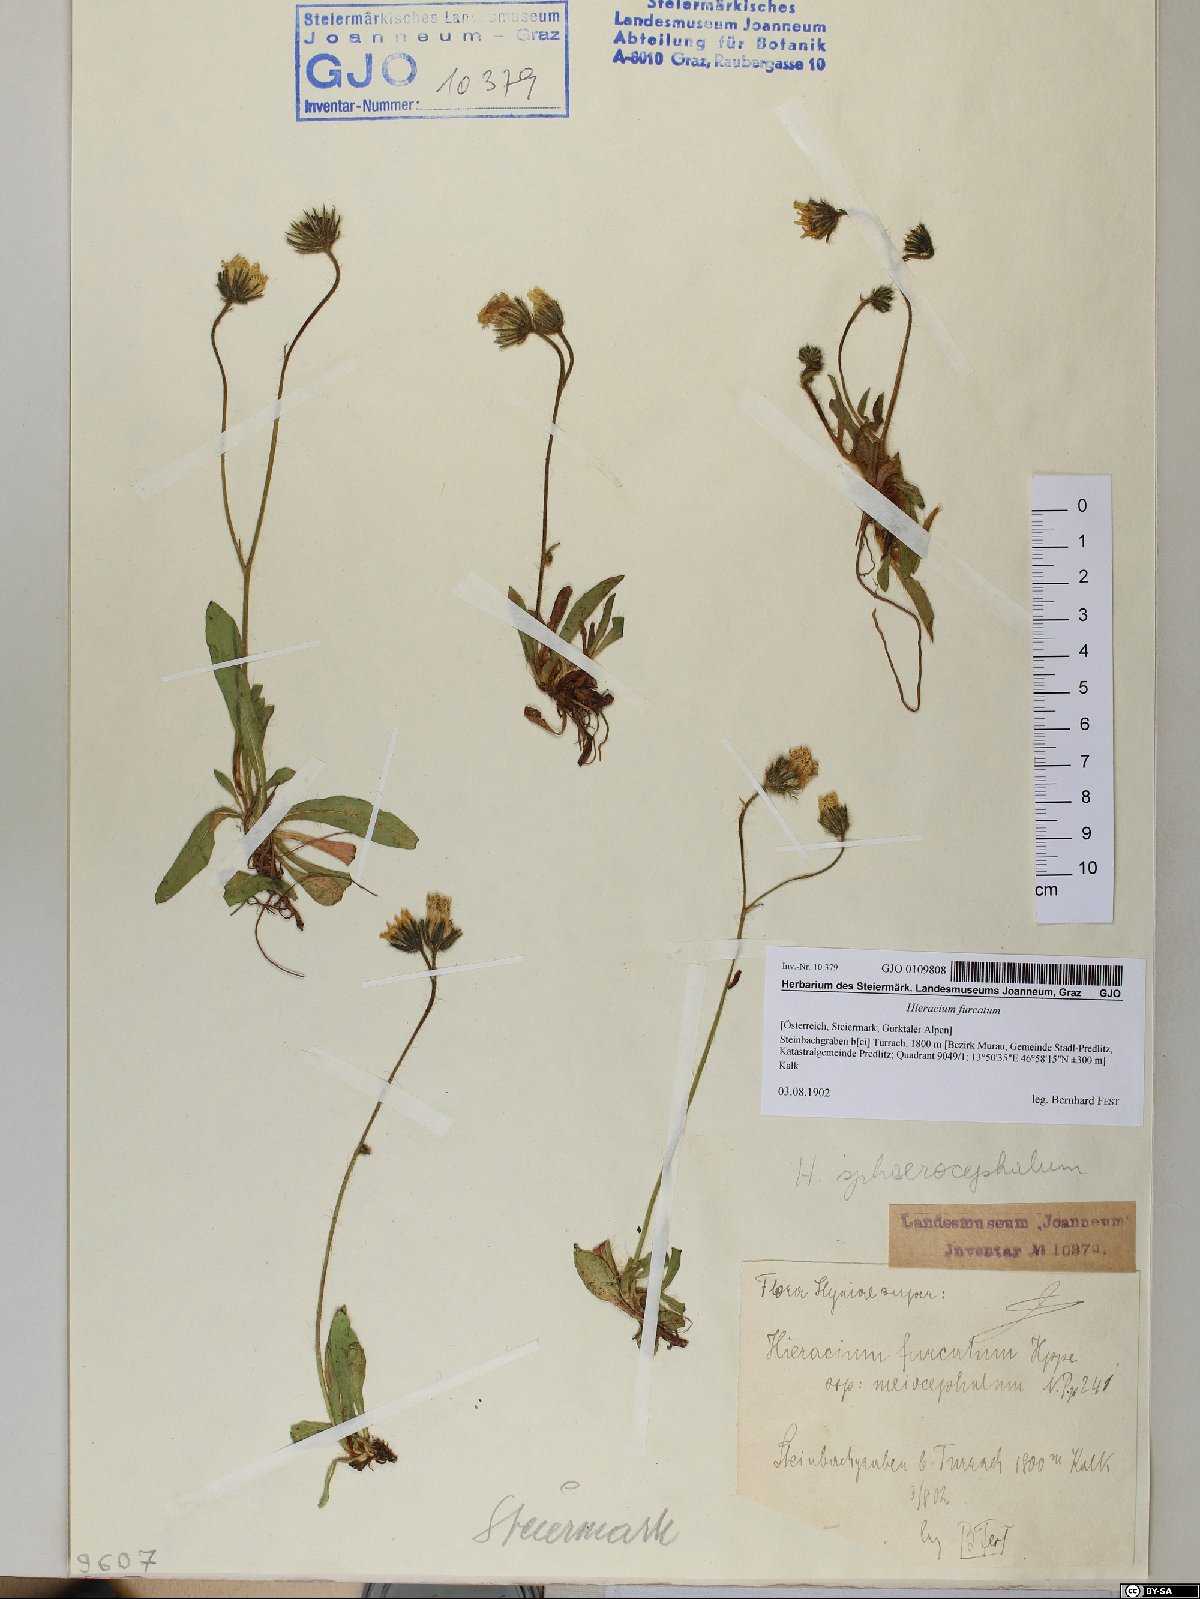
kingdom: Plantae
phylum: Tracheophyta
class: Magnoliopsida
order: Asterales
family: Asteraceae
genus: Pilosella
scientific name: Pilosella sphaerocephala
